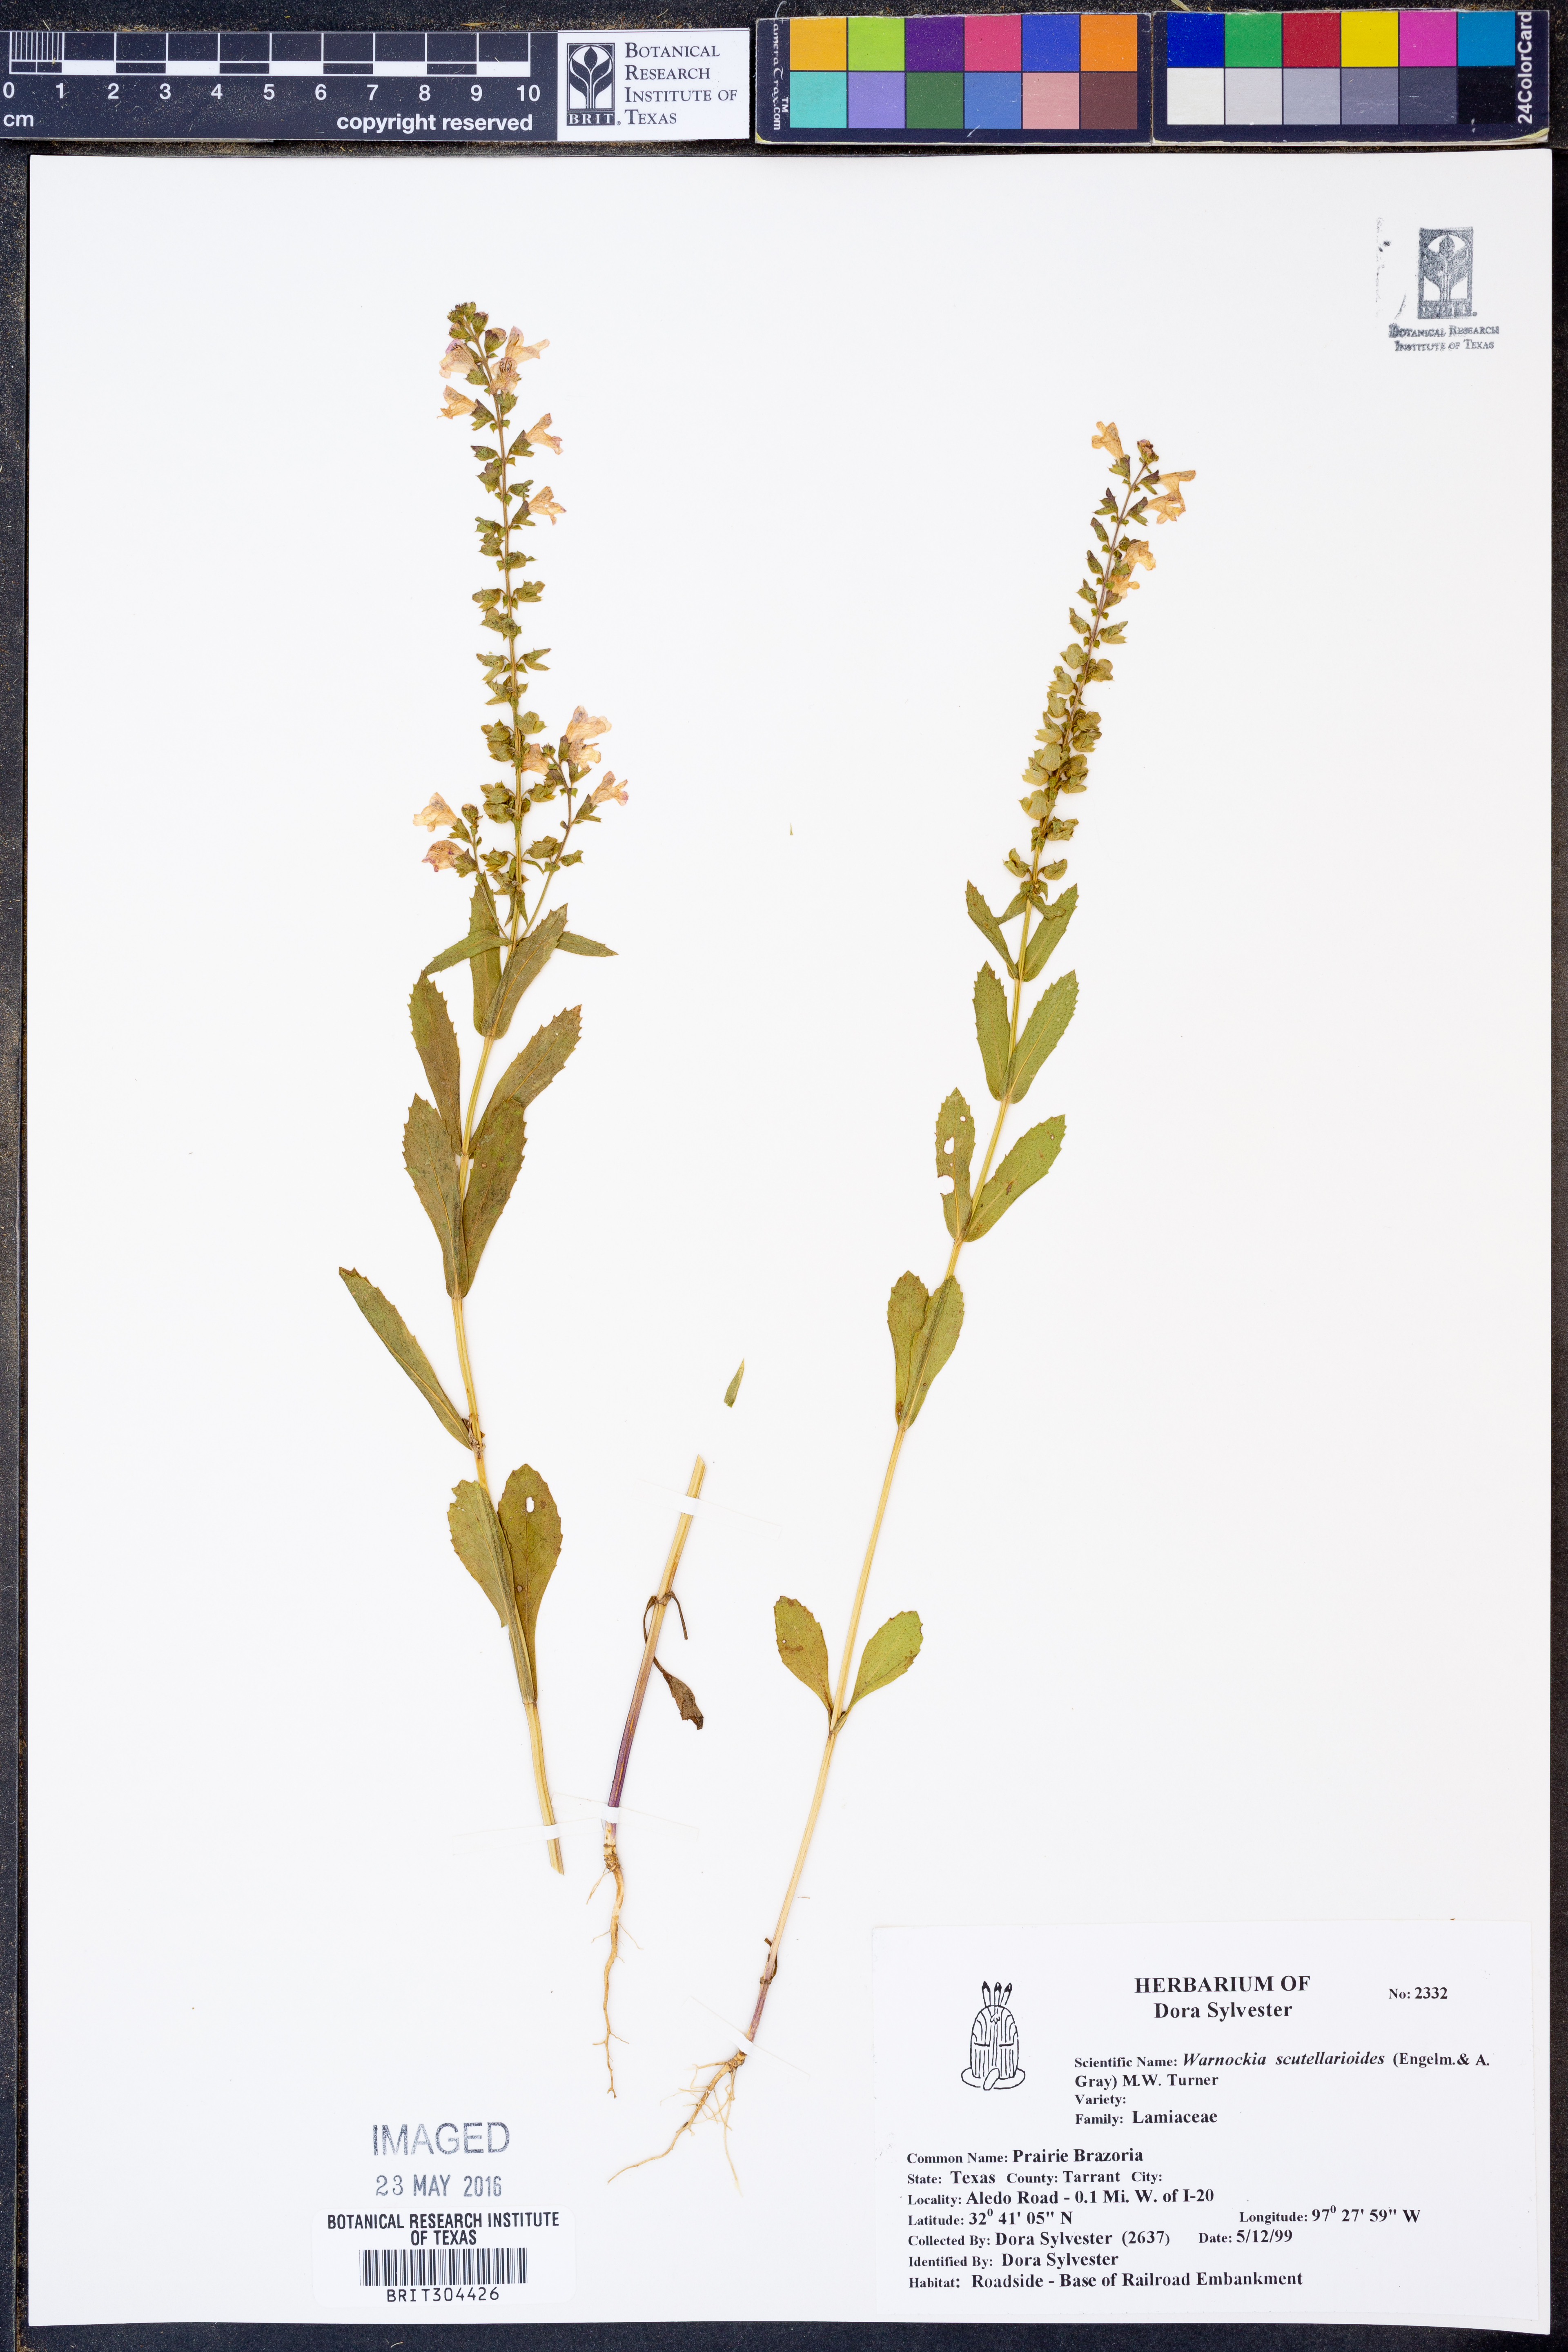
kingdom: Plantae
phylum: Tracheophyta
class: Magnoliopsida
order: Lamiales
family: Lamiaceae
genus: Warnockia
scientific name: Warnockia scutellarioides
